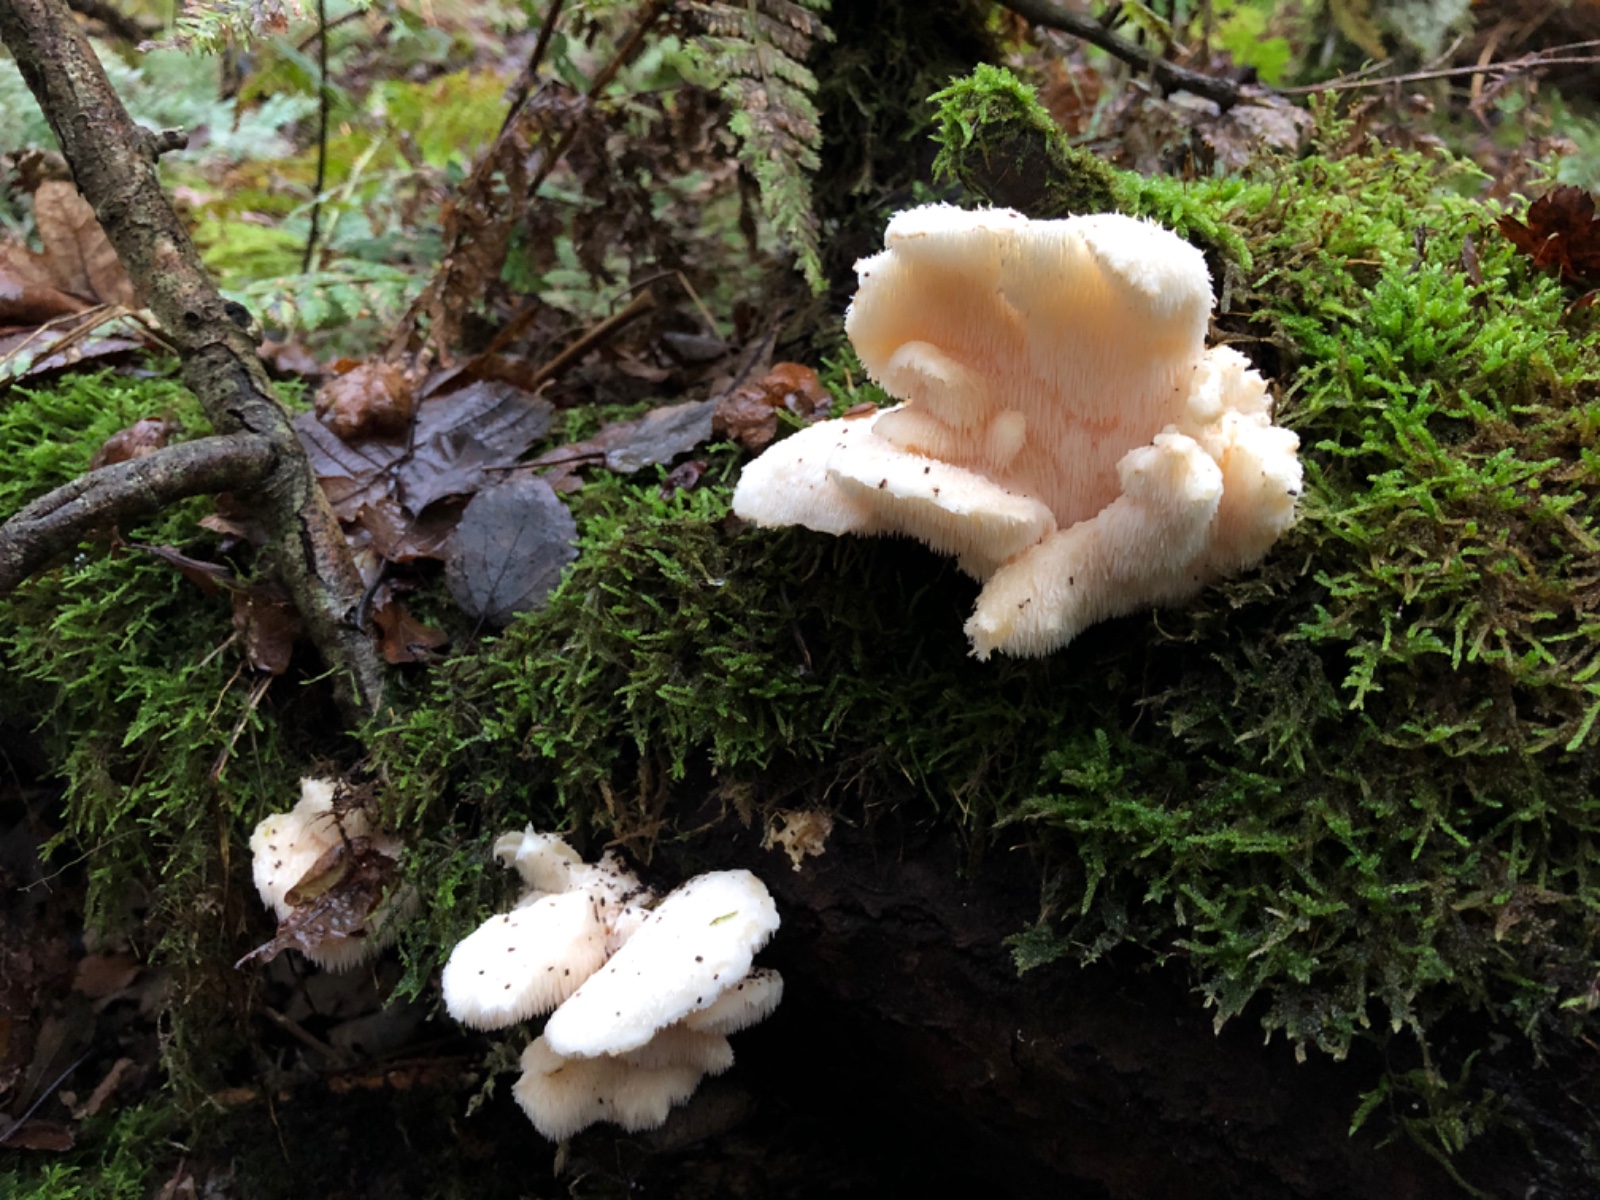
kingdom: Fungi
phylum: Basidiomycota
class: Agaricomycetes
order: Russulales
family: Hericiaceae
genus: Hericium
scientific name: Hericium cirrhatum
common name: børstepigsvamp
